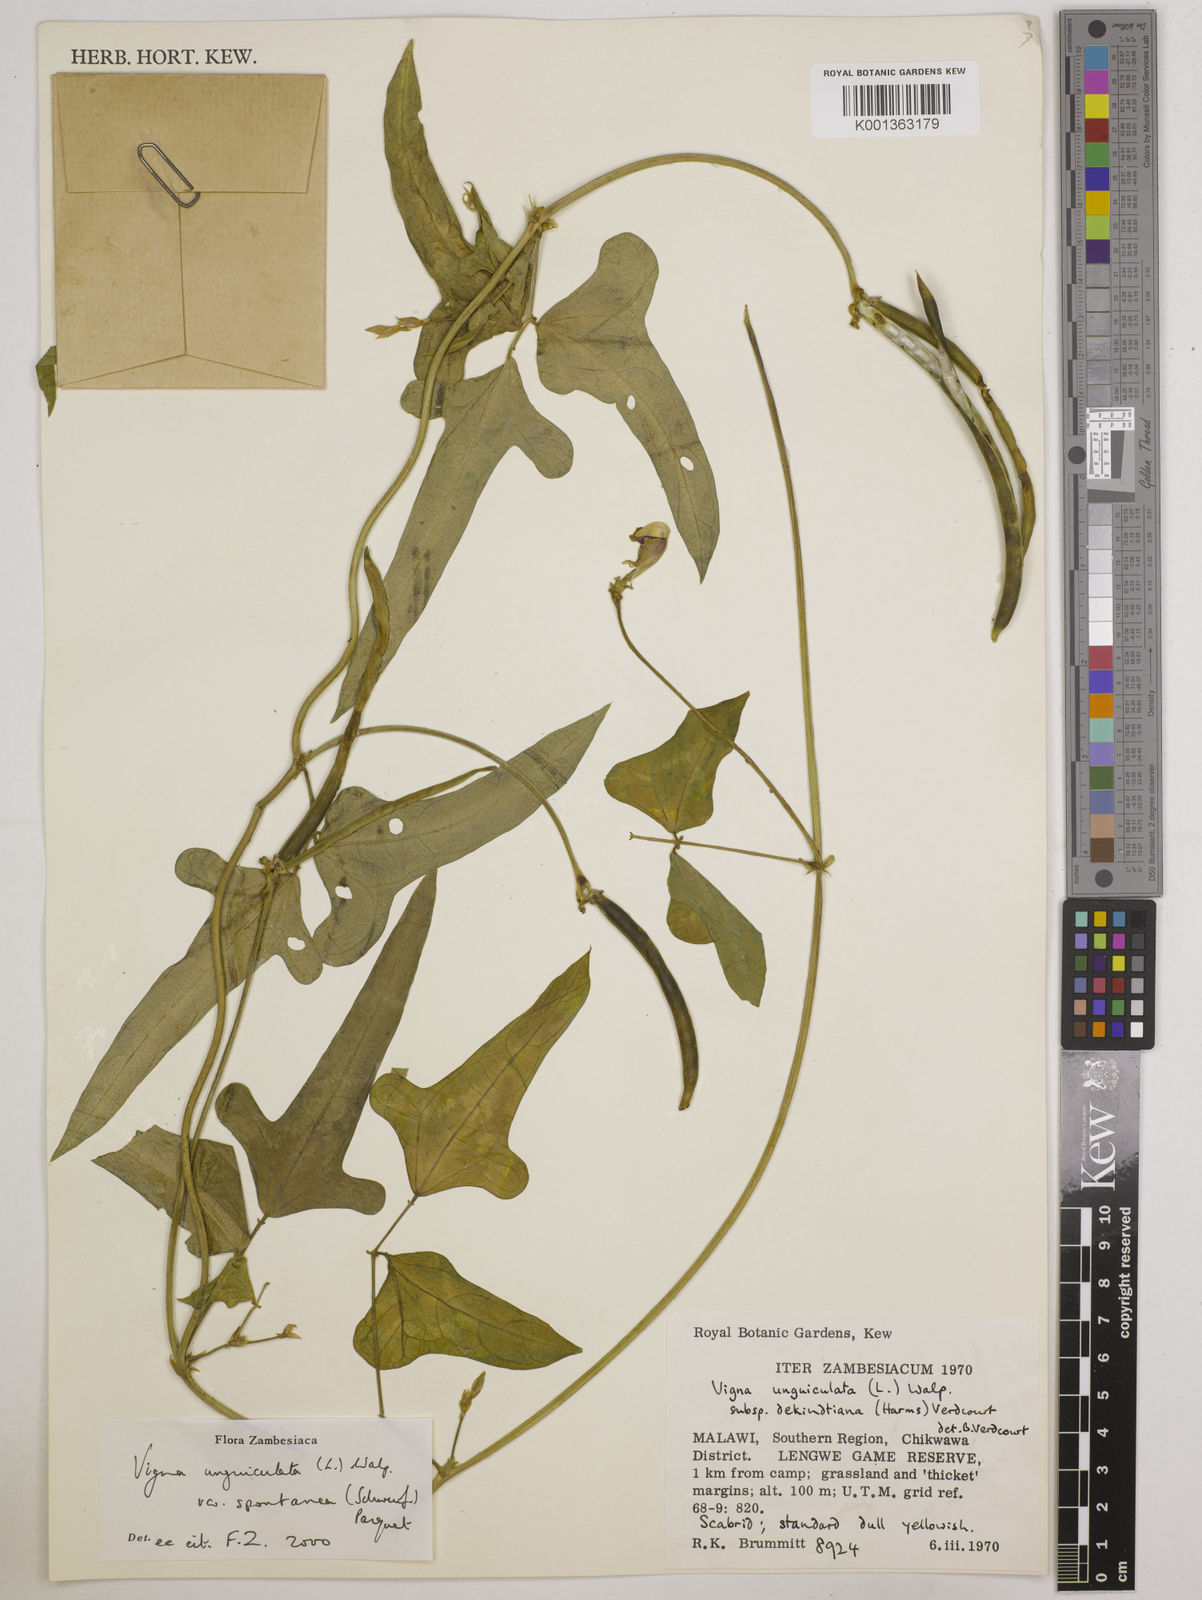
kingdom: Plantae
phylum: Tracheophyta
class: Magnoliopsida
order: Fabales
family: Fabaceae
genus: Vigna
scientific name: Vigna unguiculata
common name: Cowpea
